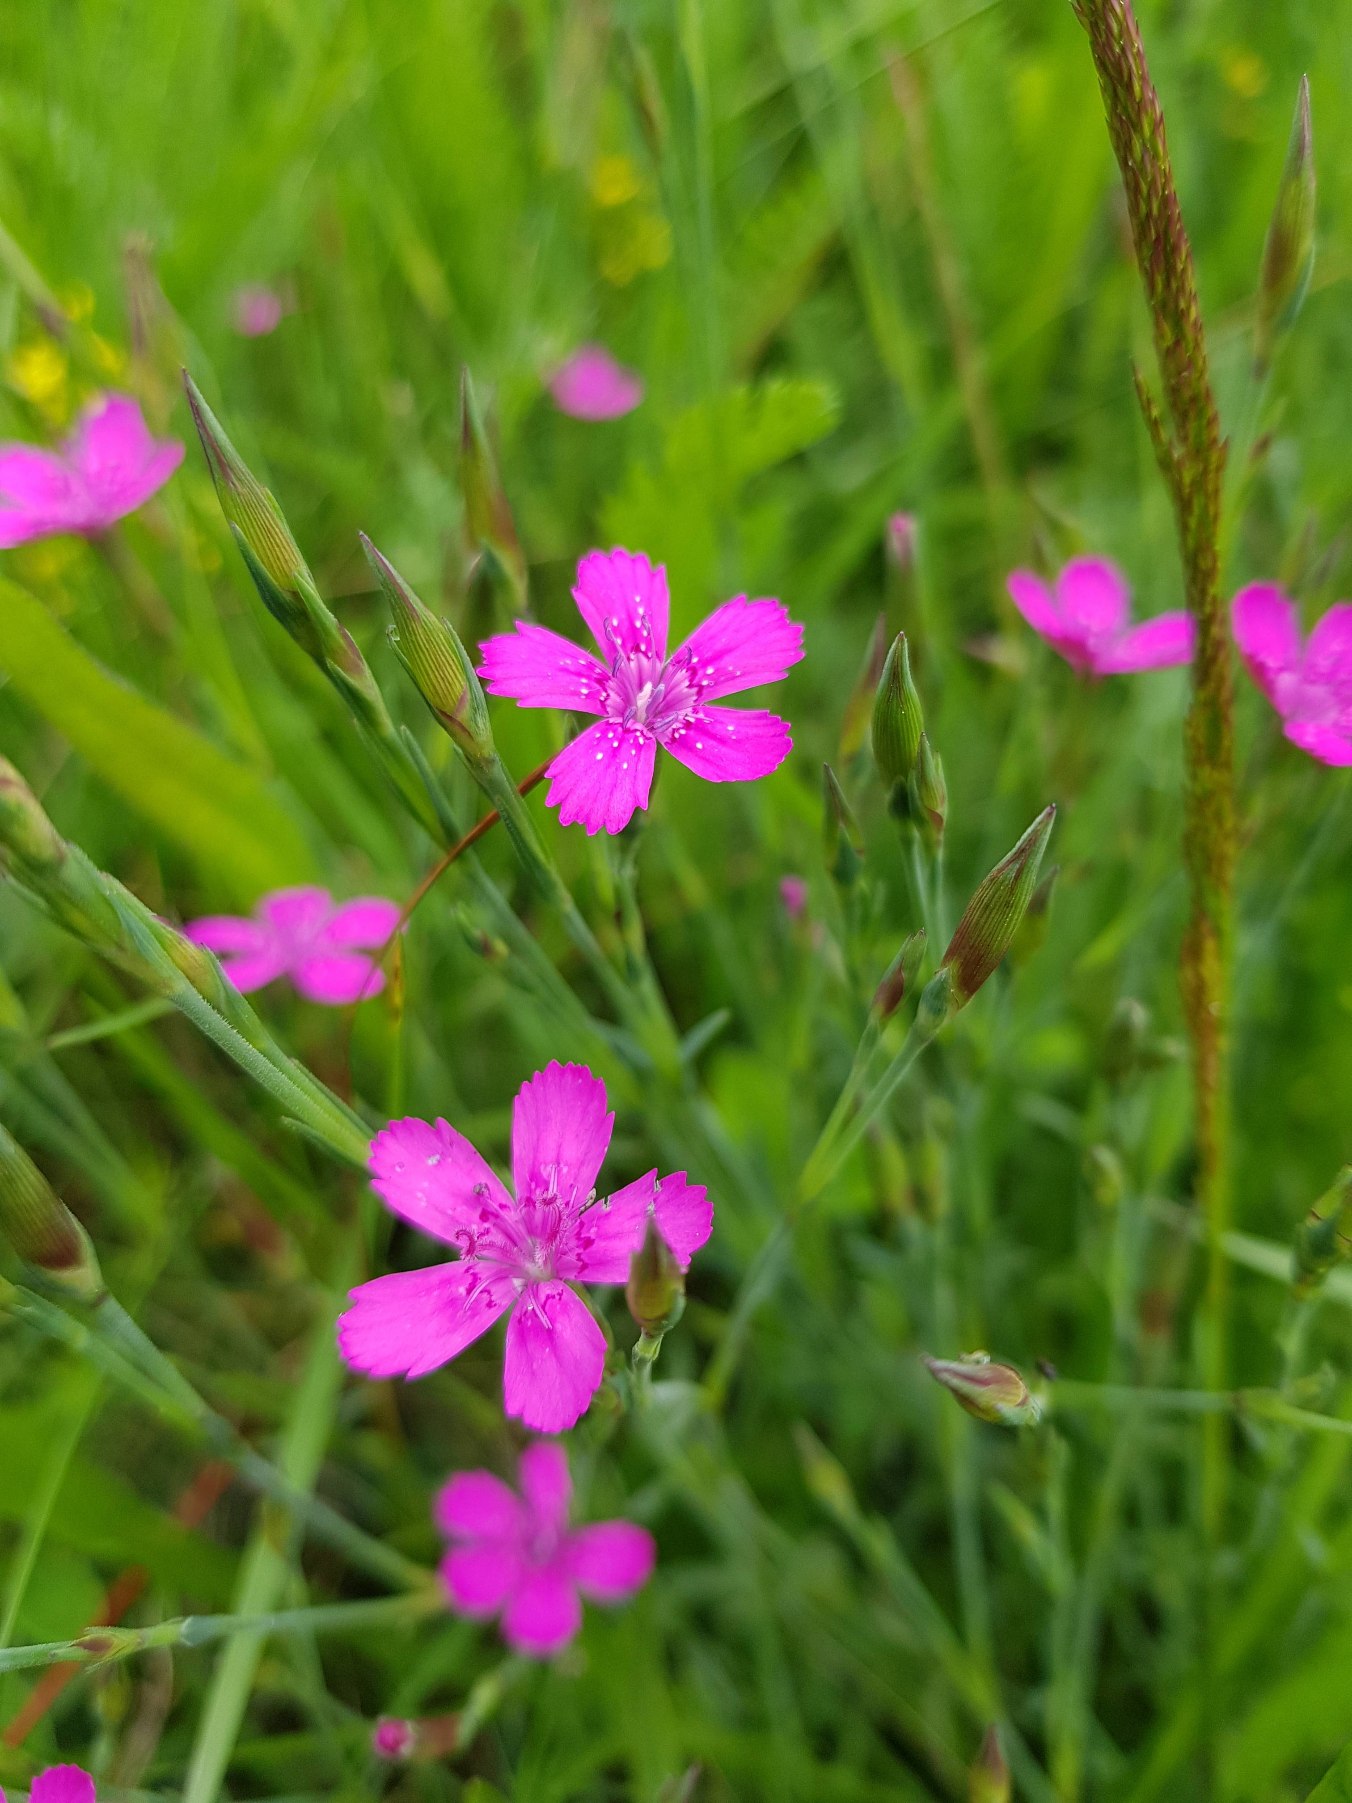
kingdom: Plantae
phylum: Tracheophyta
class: Magnoliopsida
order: Caryophyllales
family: Caryophyllaceae
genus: Dianthus
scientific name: Dianthus deltoides
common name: Bakke-nellike
